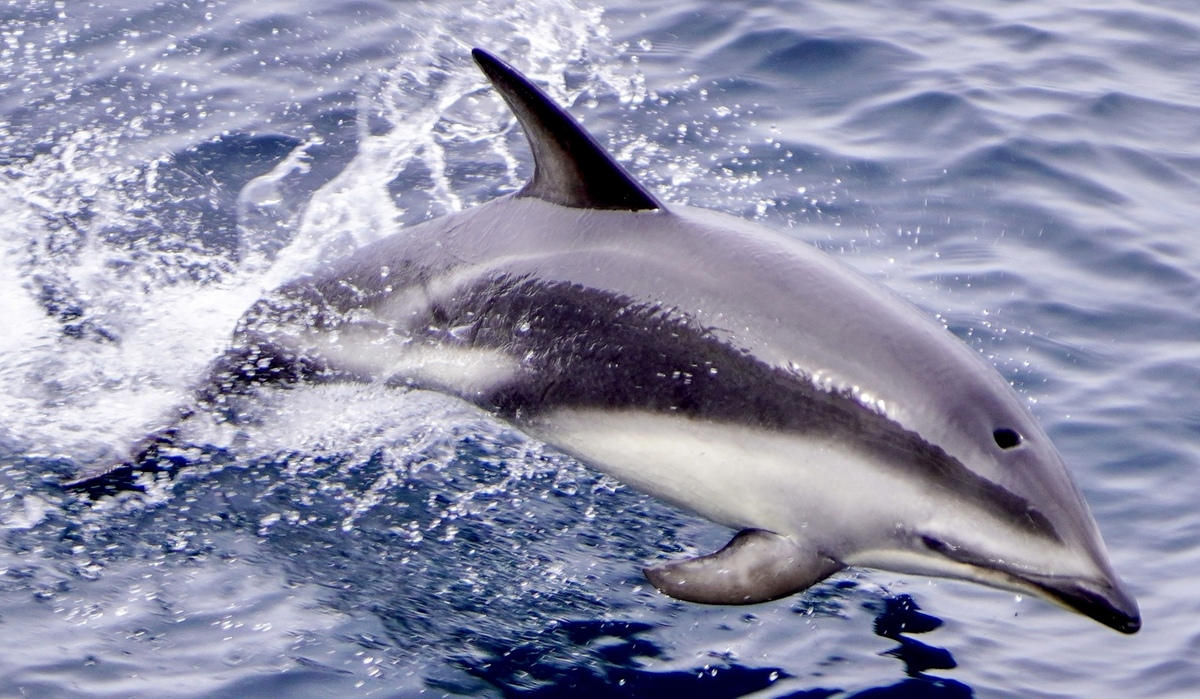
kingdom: Animalia
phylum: Chordata
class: Mammalia
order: Cetacea
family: Delphinidae
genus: Lagenorhynchus
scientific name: Lagenorhynchus obscurus
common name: Dusky dolphin
